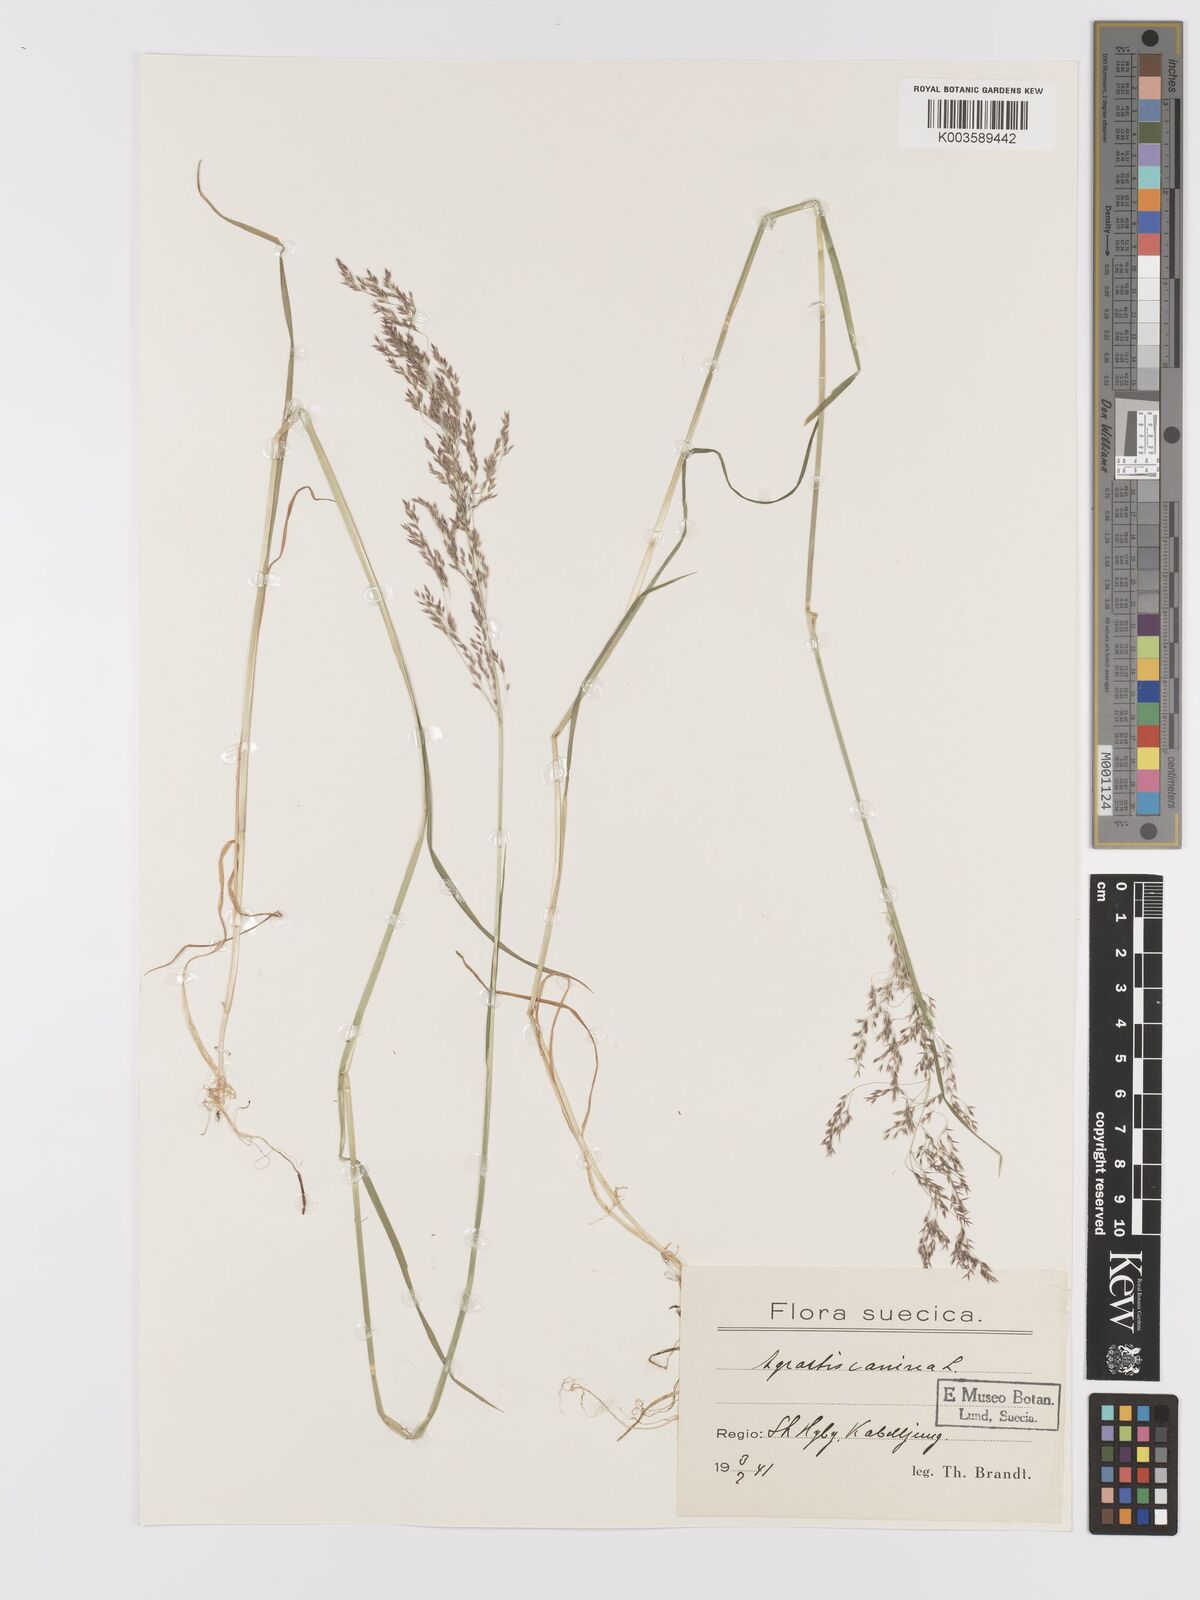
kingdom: Plantae
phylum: Tracheophyta
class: Liliopsida
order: Poales
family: Poaceae
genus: Agrostis
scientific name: Agrostis canina
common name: Velvet bent
